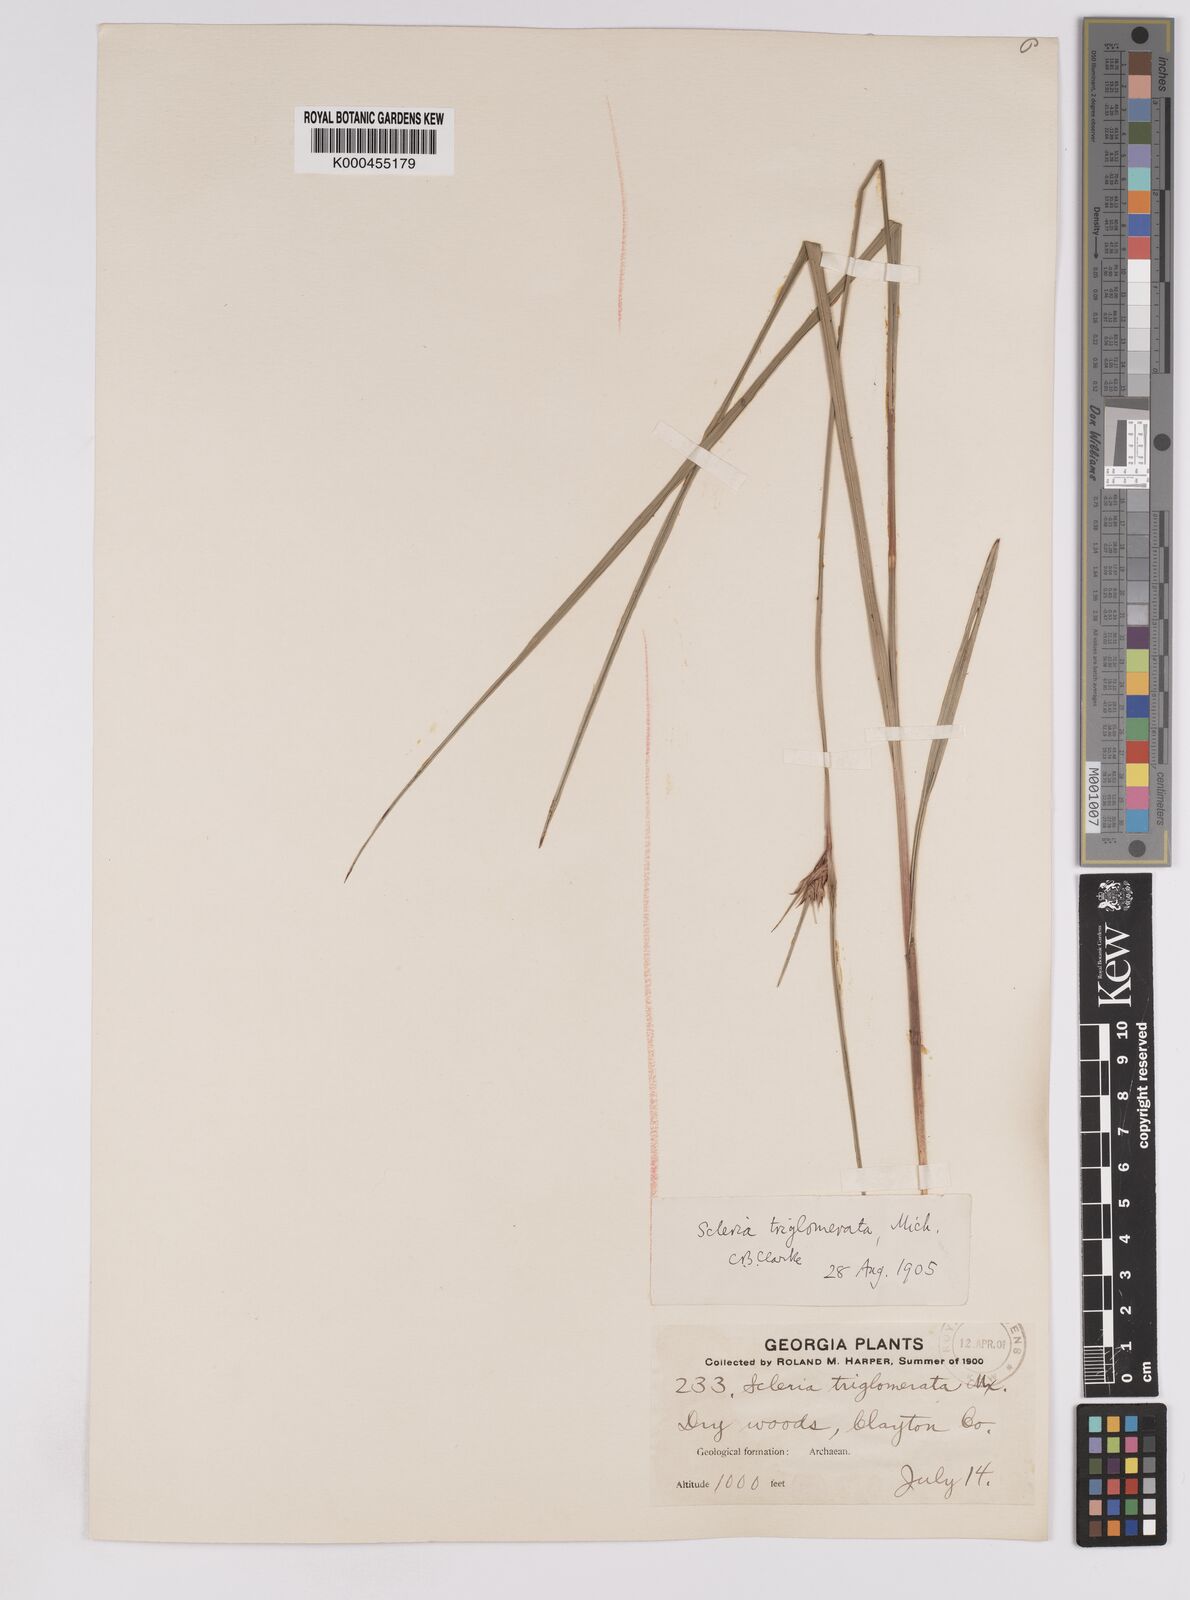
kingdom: Plantae
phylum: Tracheophyta
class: Liliopsida
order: Poales
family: Cyperaceae
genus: Scleria
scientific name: Scleria triglomerata
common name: Whip nutrush
